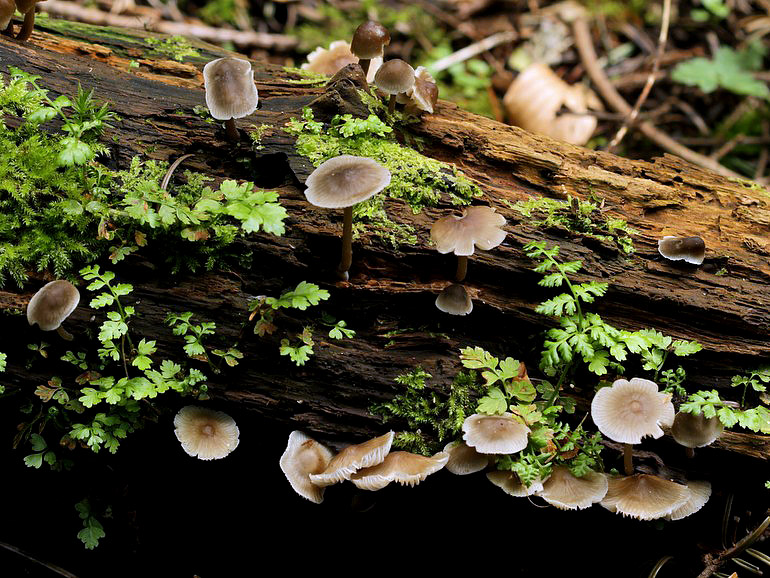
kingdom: Fungi
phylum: Basidiomycota
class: Agaricomycetes
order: Agaricales
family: Mycenaceae
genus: Mycena
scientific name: Mycena galericulata
